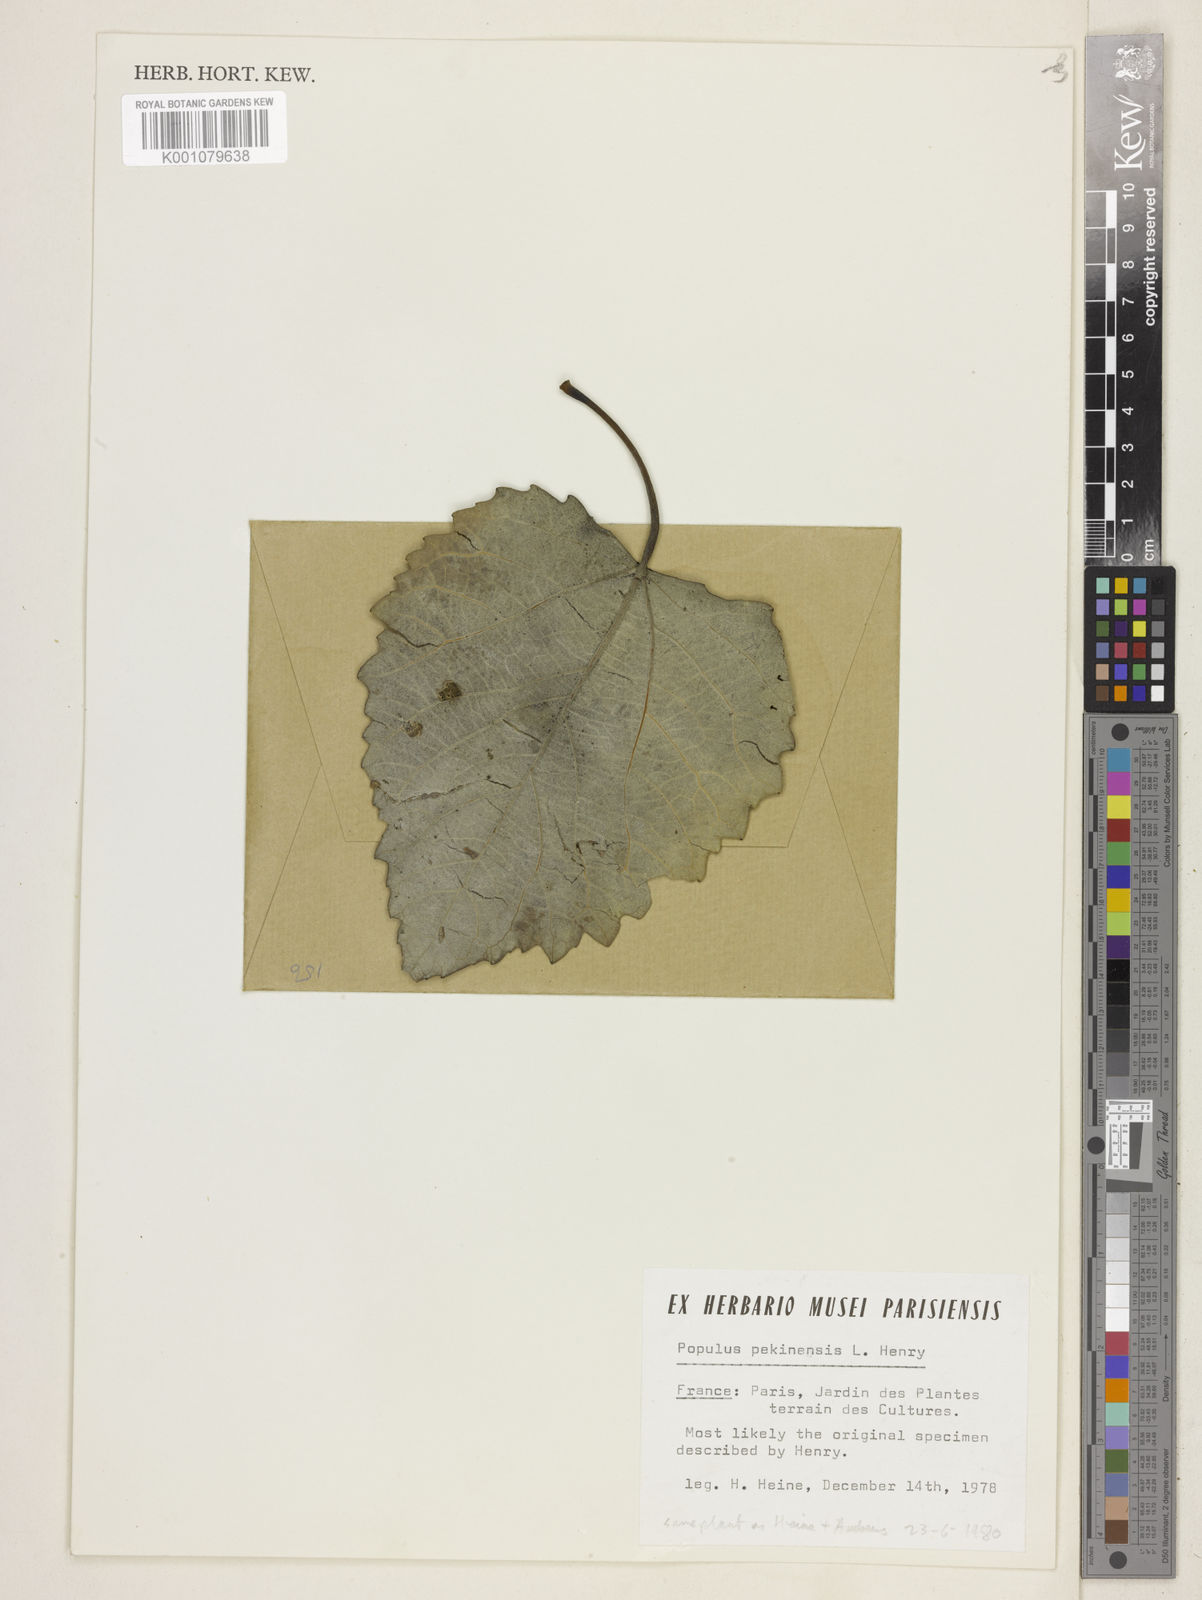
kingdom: Plantae
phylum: Tracheophyta
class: Magnoliopsida
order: Malpighiales
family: Salicaceae
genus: Populus
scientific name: Populus
